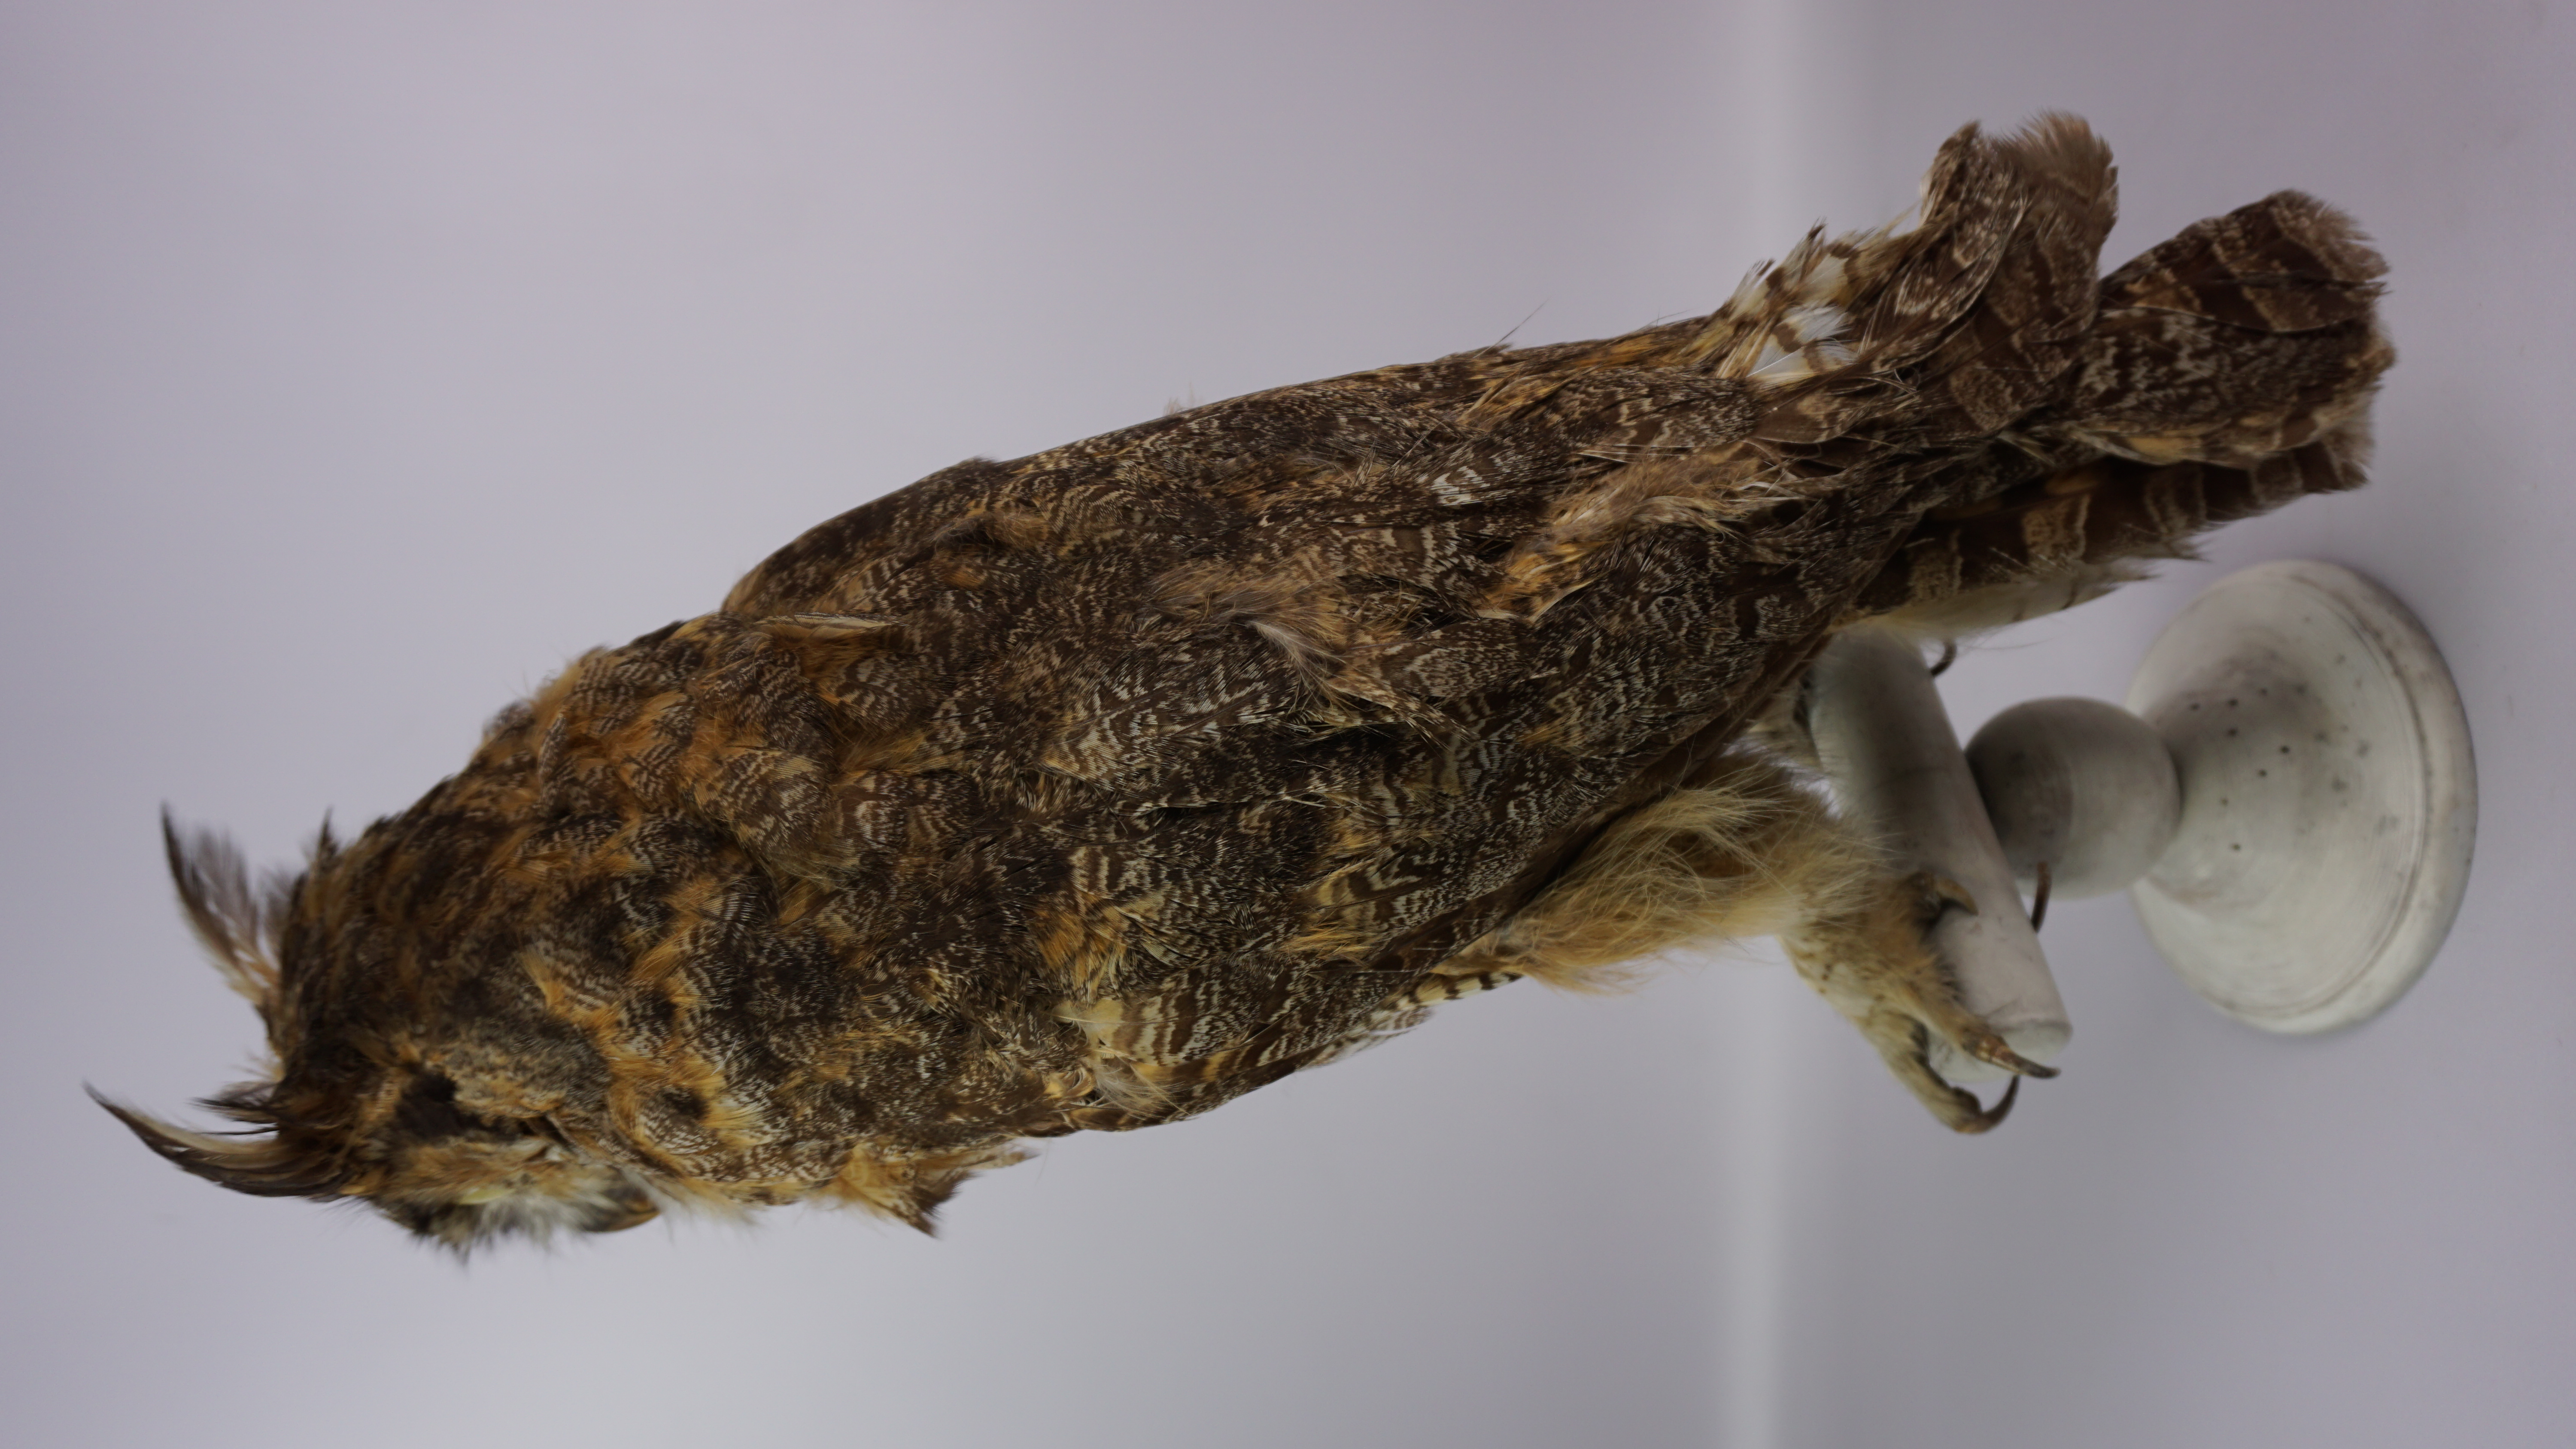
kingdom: Animalia
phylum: Chordata
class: Aves
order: Strigiformes
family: Strigidae
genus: Bubo
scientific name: Bubo virginianus
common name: Great horned owl
